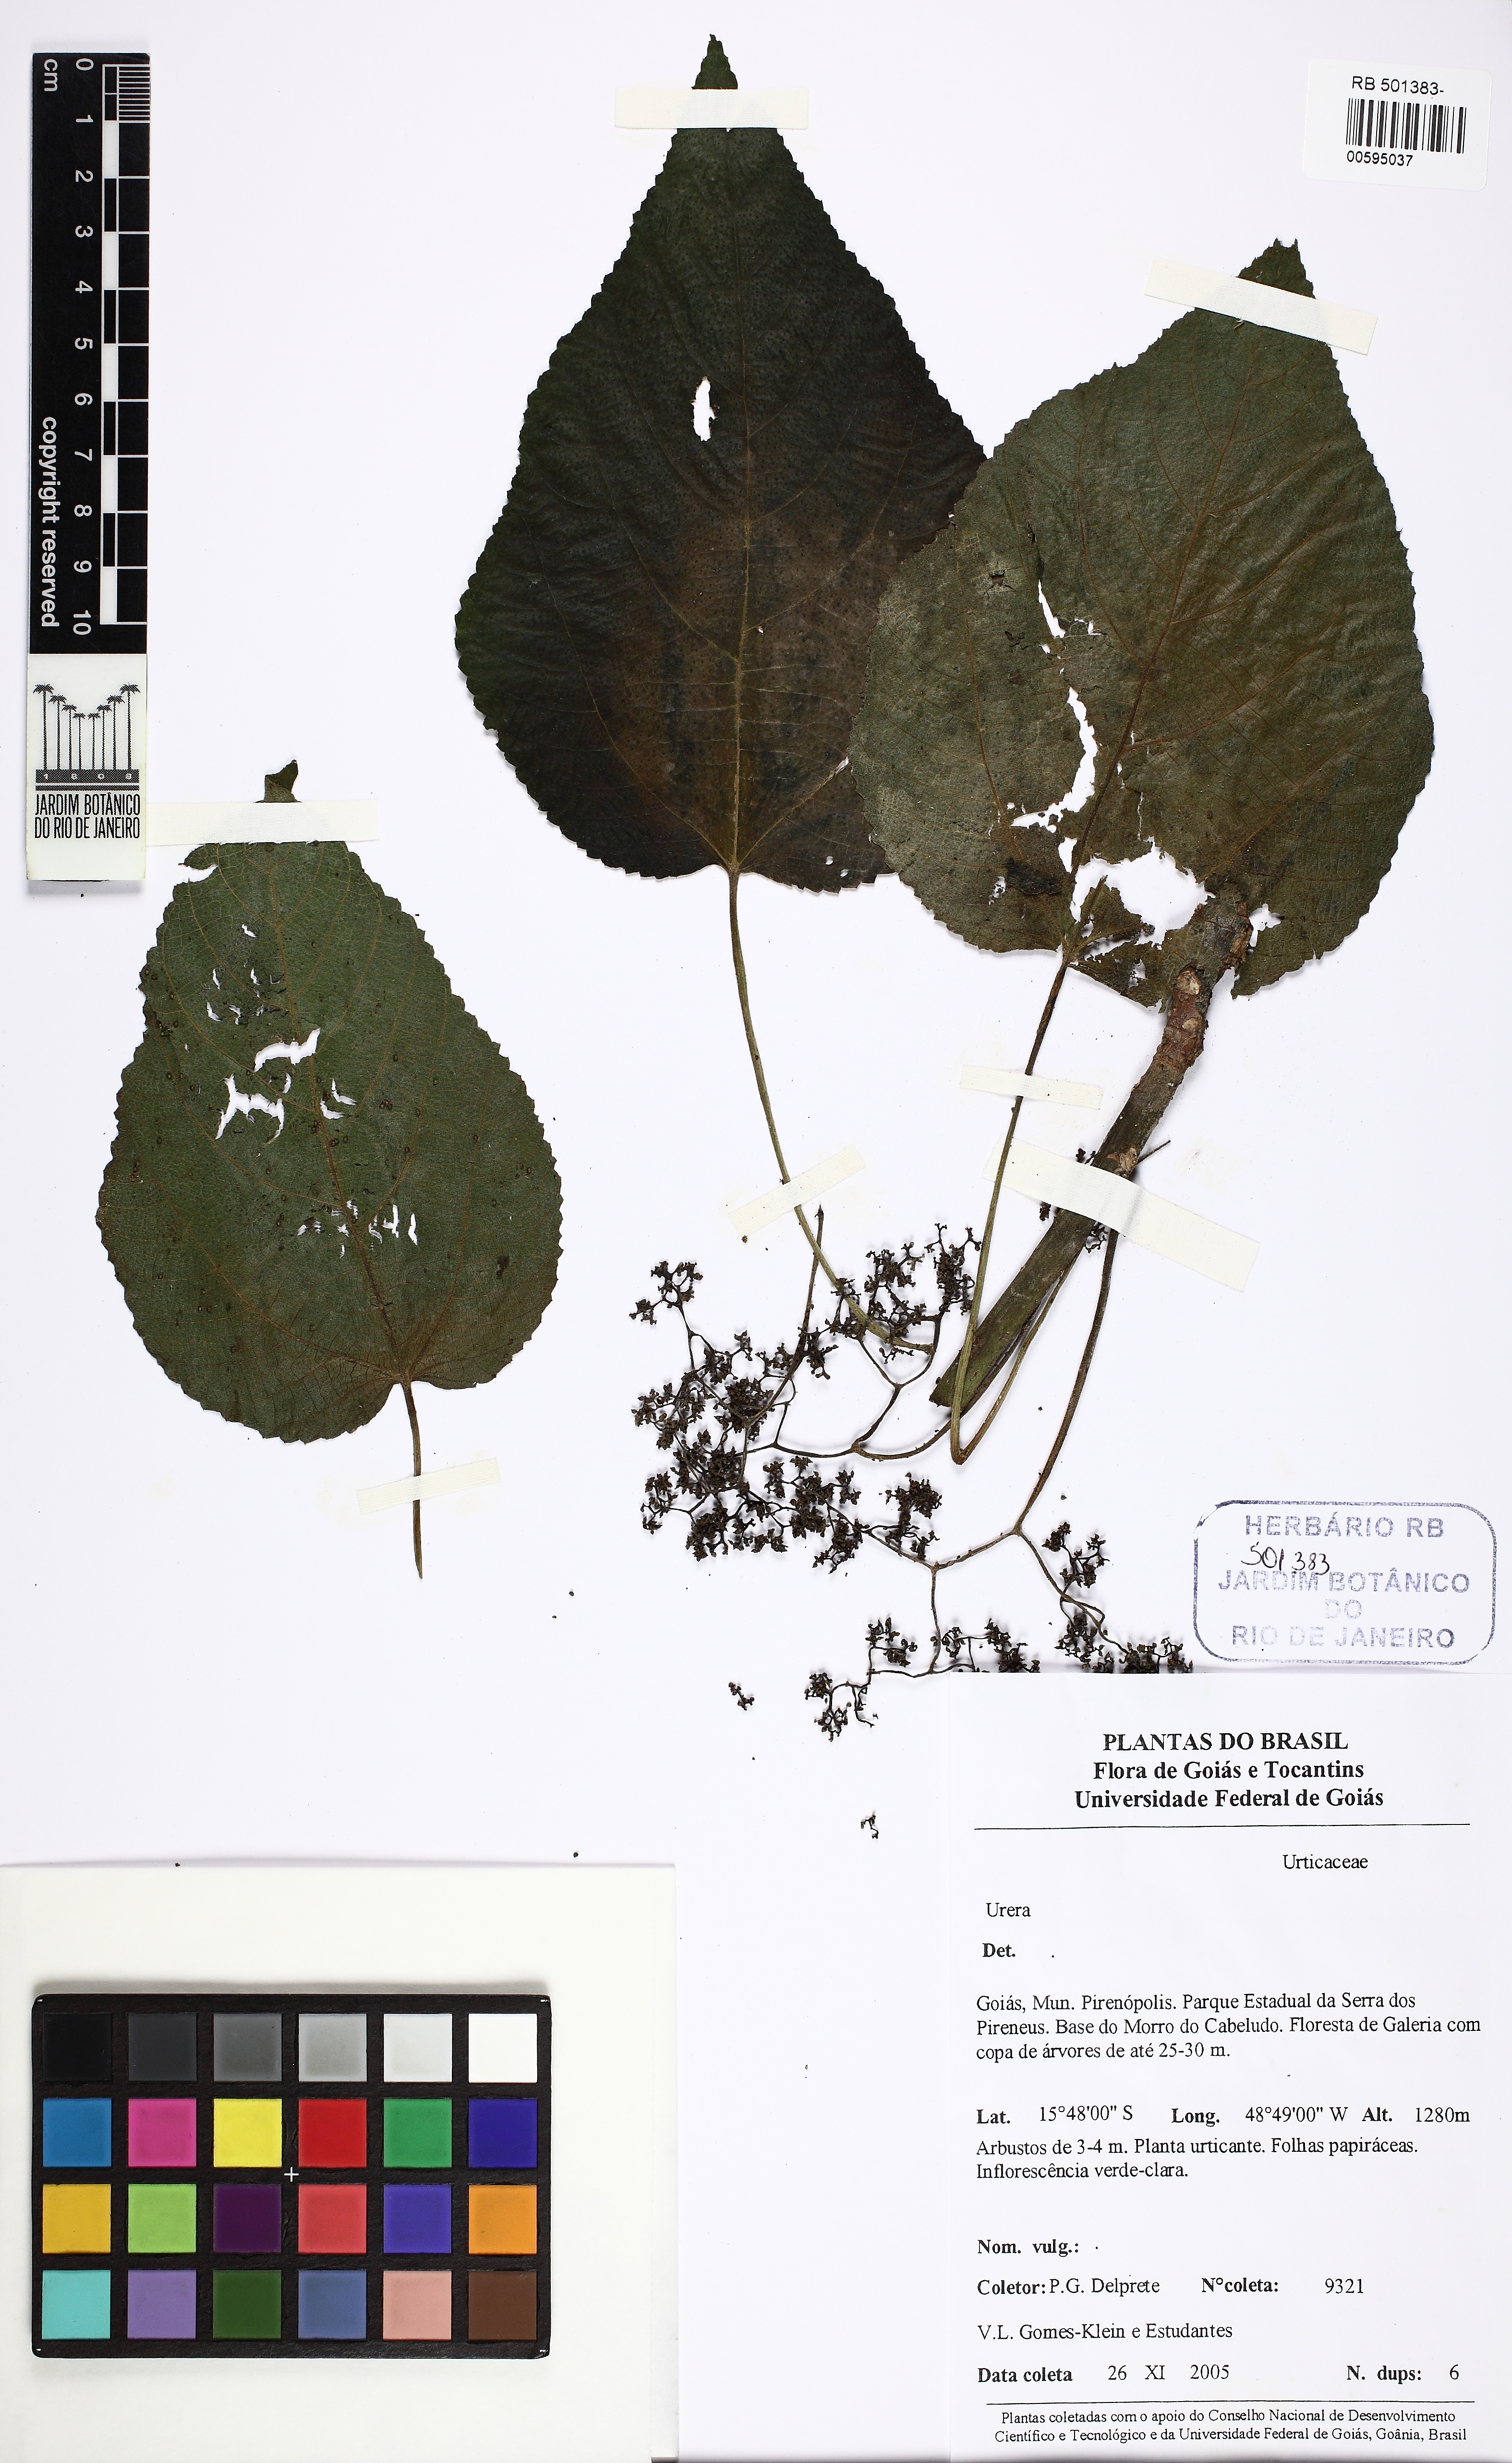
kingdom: Plantae
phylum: Tracheophyta
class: Magnoliopsida
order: Rosales
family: Urticaceae
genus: Urera
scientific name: Urera caracasana
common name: Flameberry
